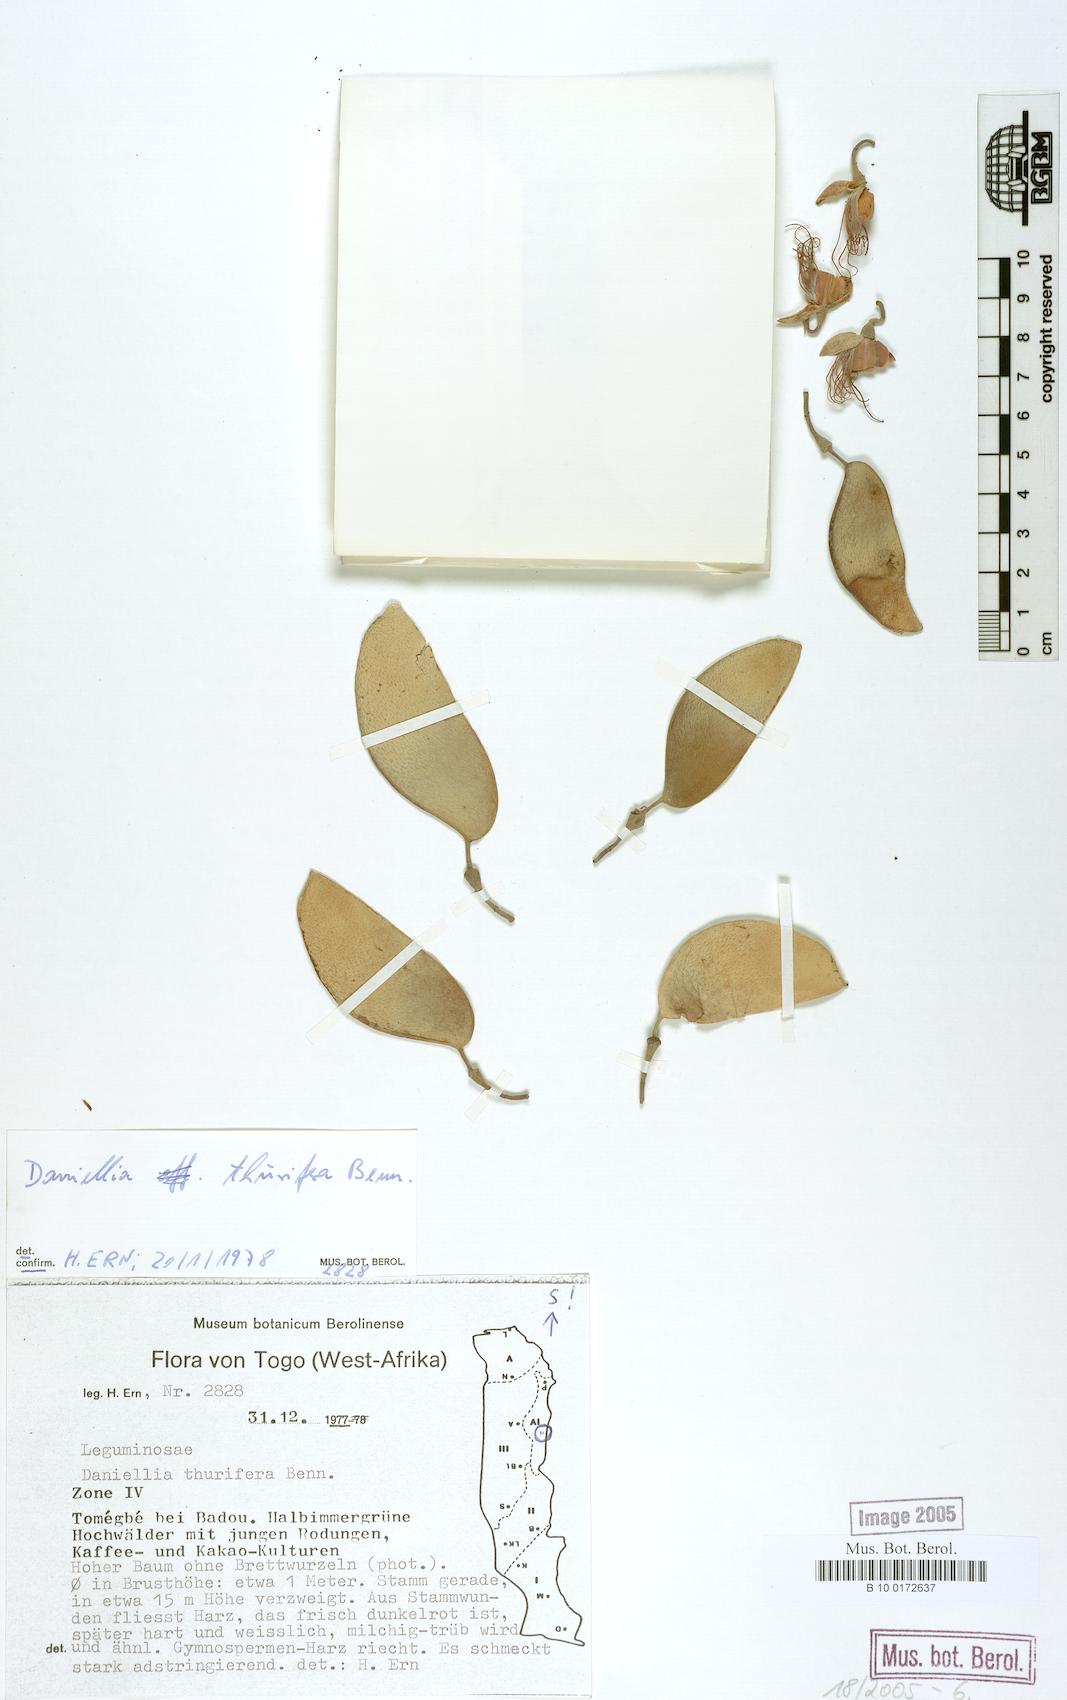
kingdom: Plantae
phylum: Tracheophyta
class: Magnoliopsida
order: Fabales
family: Fabaceae
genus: Daniellia
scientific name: Daniellia ogea
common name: Accra copal
